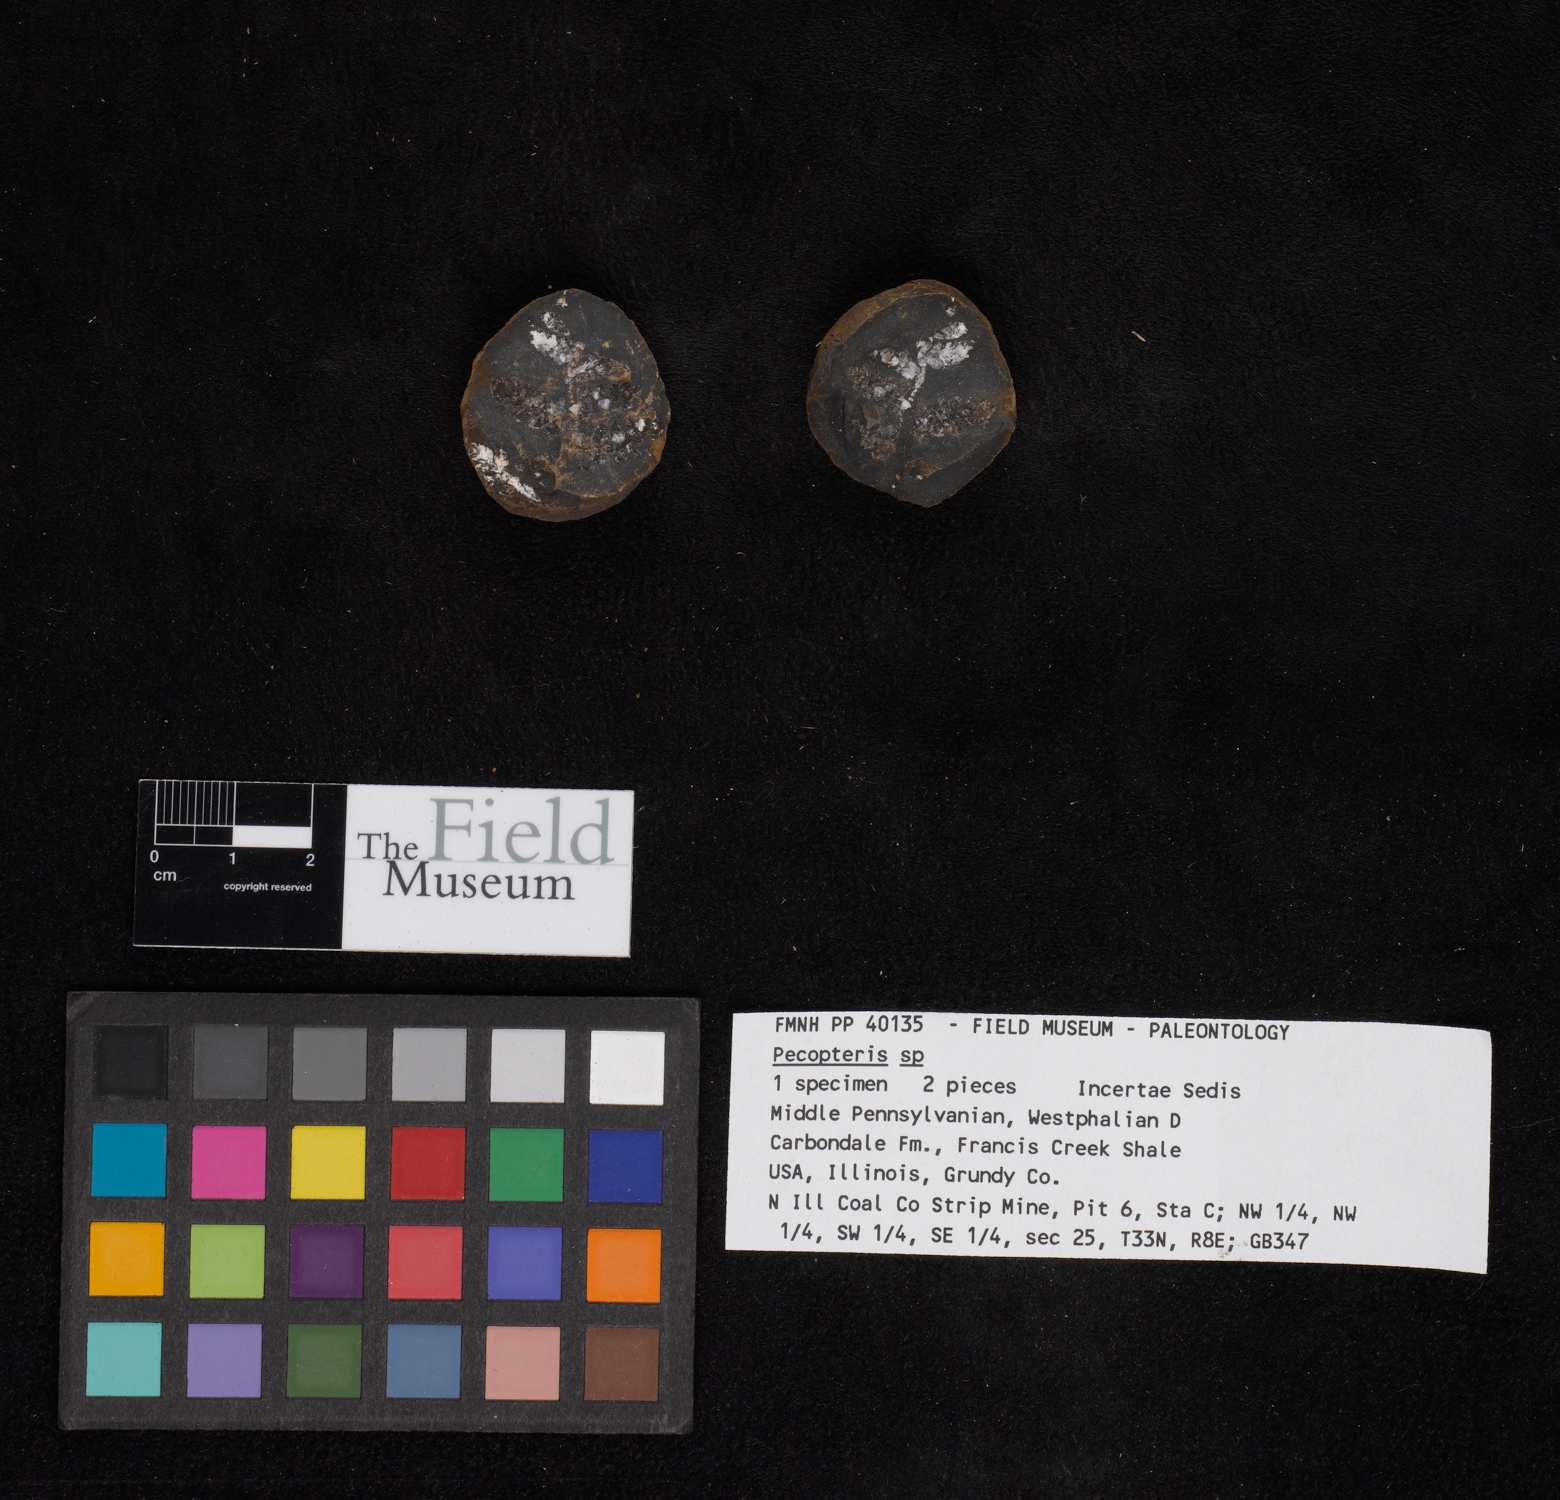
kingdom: Plantae
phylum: Tracheophyta
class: Polypodiopsida
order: Marattiales
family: Asterothecaceae
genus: Pecopteris
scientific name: Pecopteris
